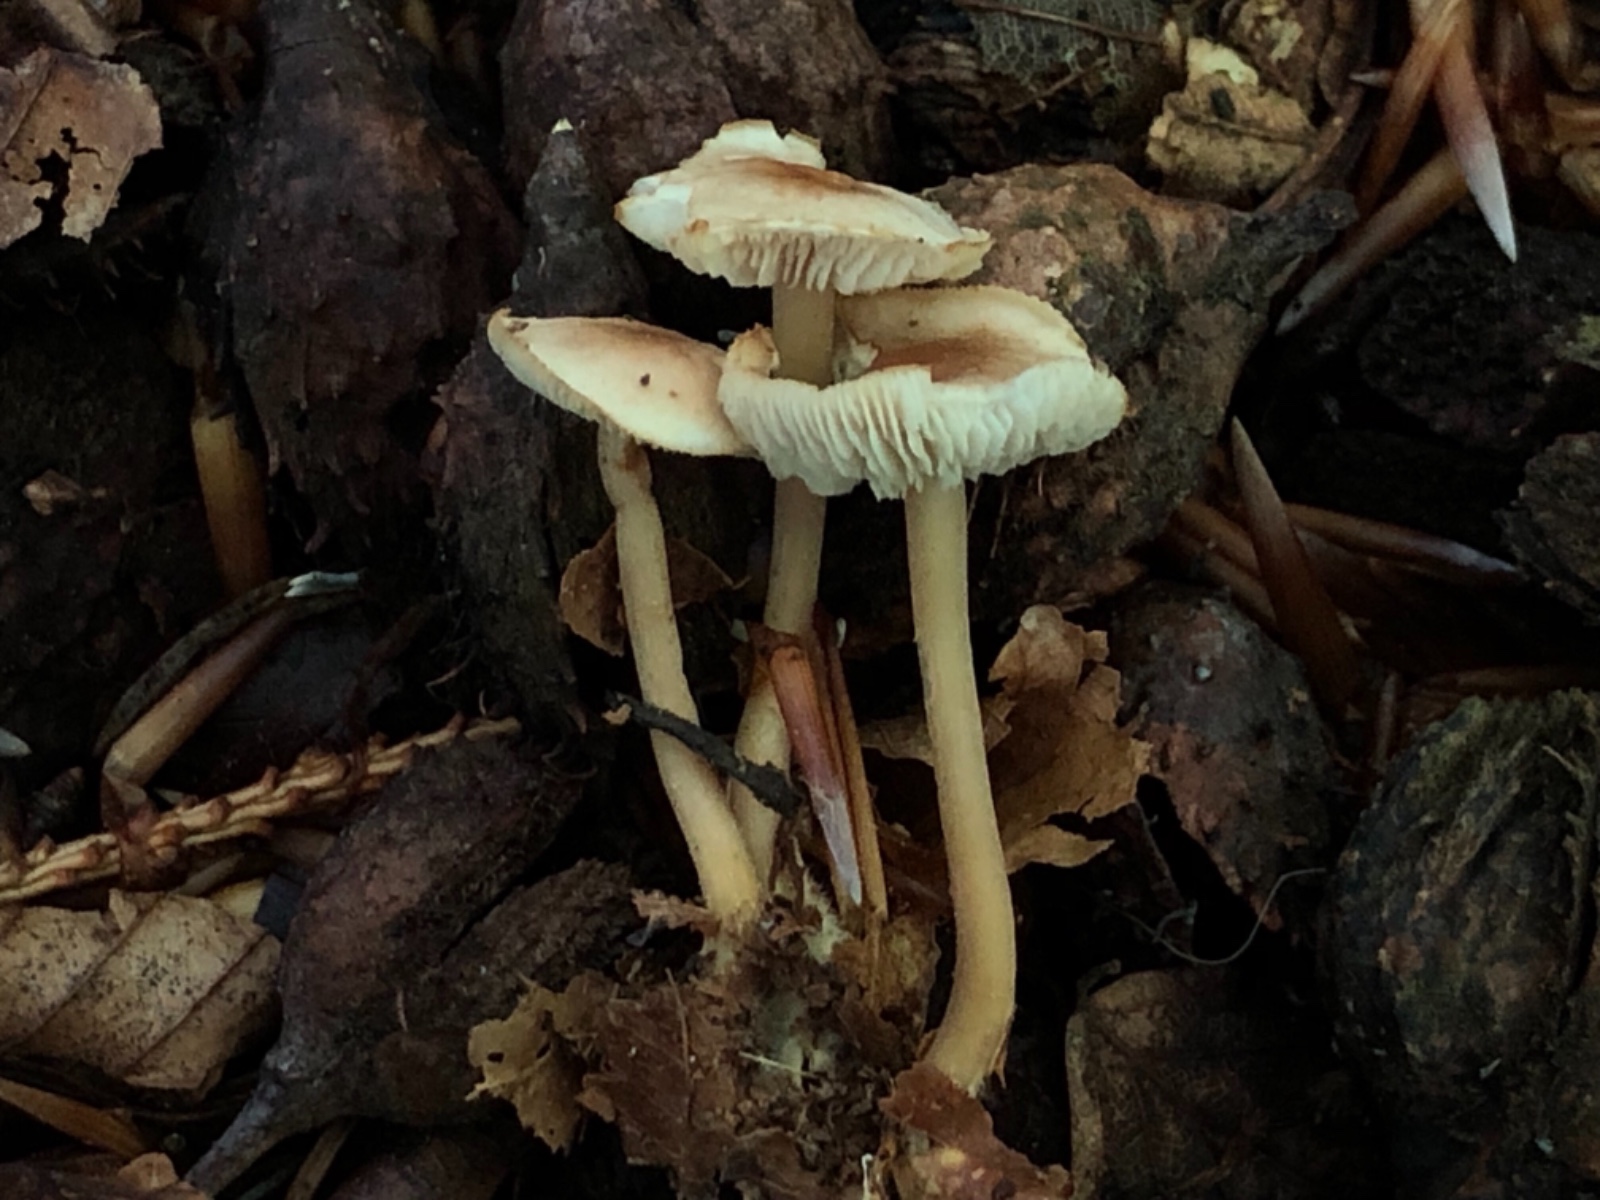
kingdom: Fungi
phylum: Basidiomycota
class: Agaricomycetes
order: Agaricales
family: Omphalotaceae
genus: Gymnopus
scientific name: Gymnopus
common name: fladhat
